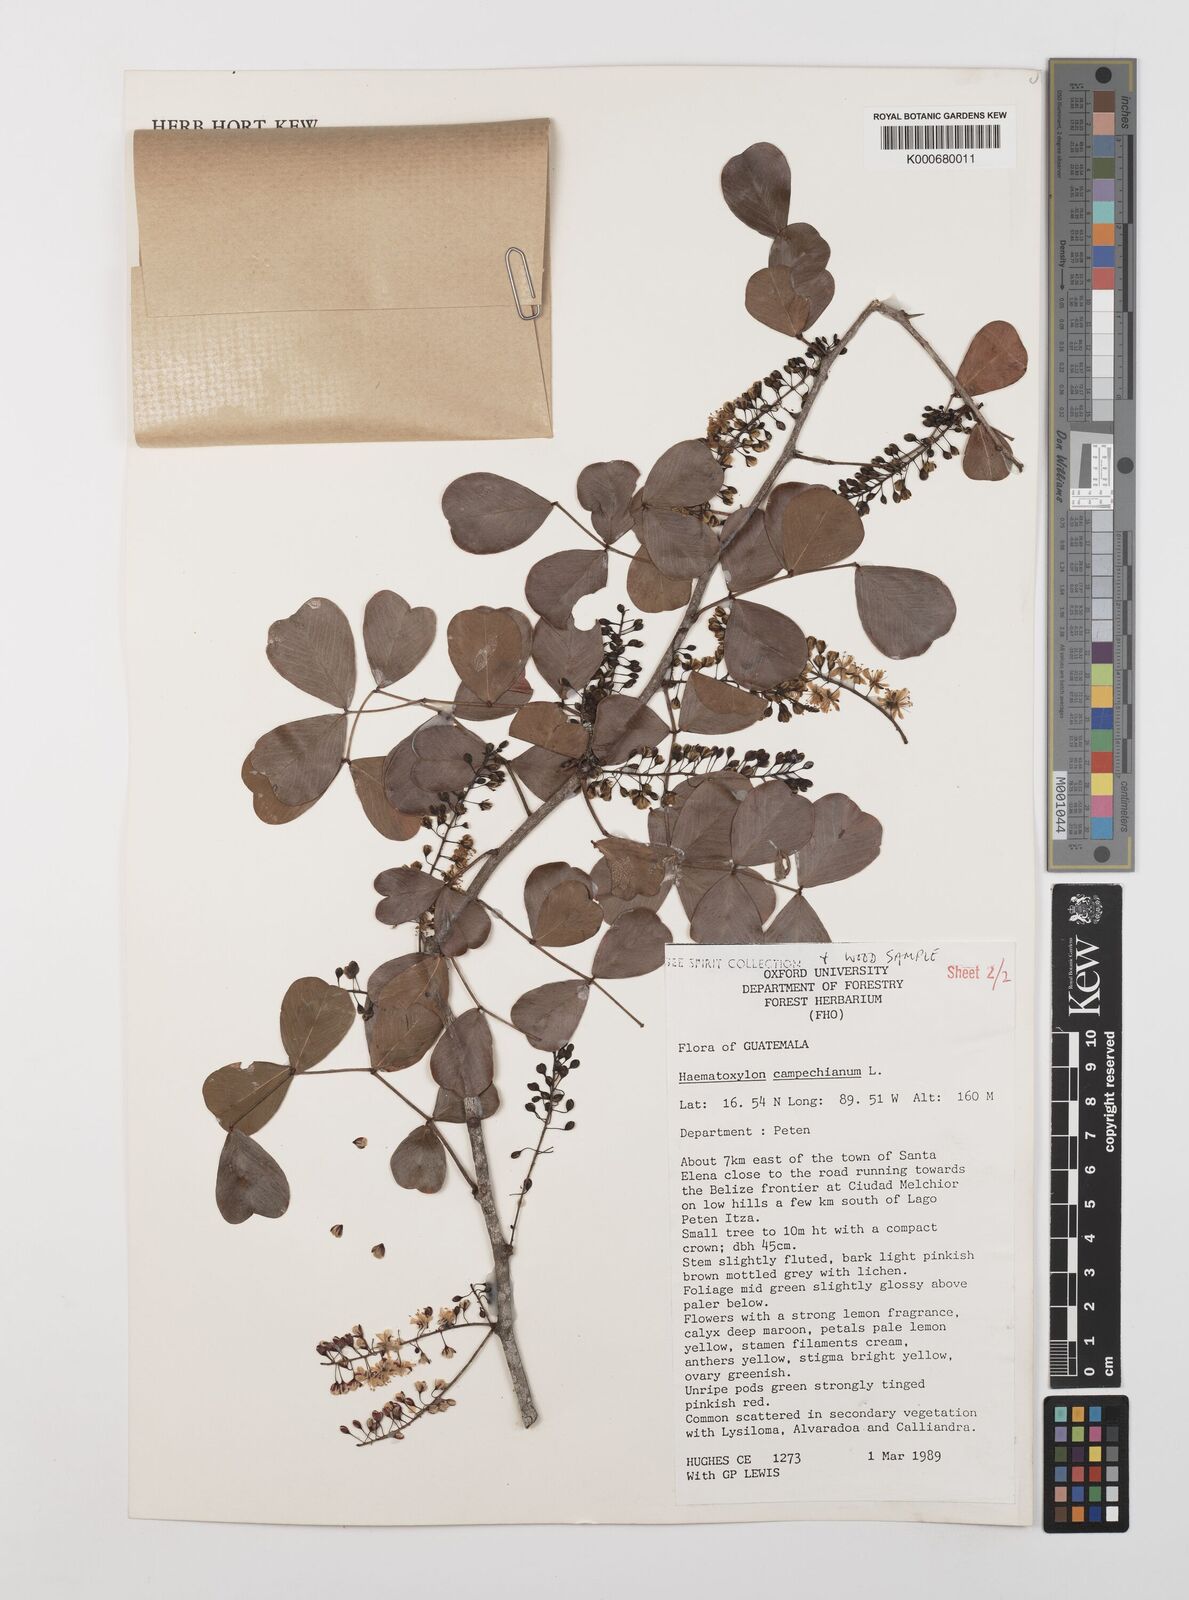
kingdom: Plantae
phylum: Tracheophyta
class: Magnoliopsida
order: Fabales
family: Fabaceae
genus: Haematoxylum
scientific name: Haematoxylum
